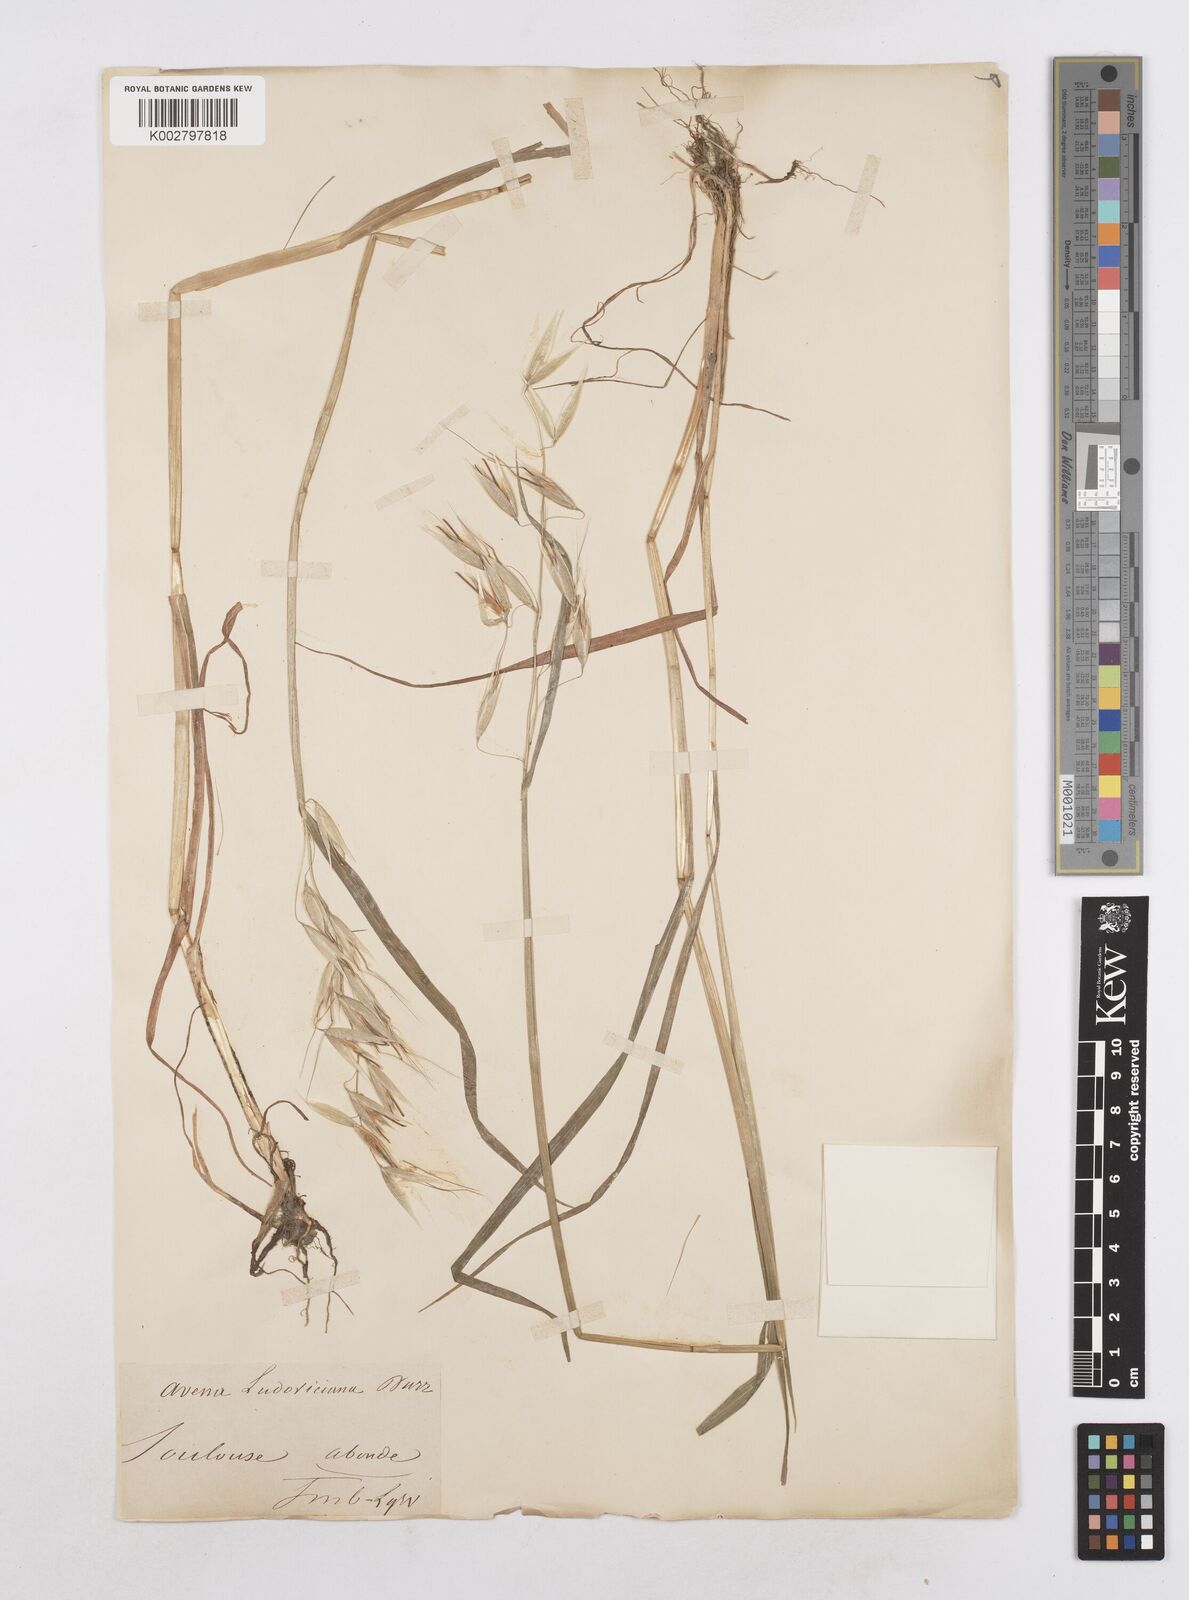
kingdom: Plantae
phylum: Tracheophyta
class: Liliopsida
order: Poales
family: Poaceae
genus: Avena
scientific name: Avena sterilis
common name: Animated oat
